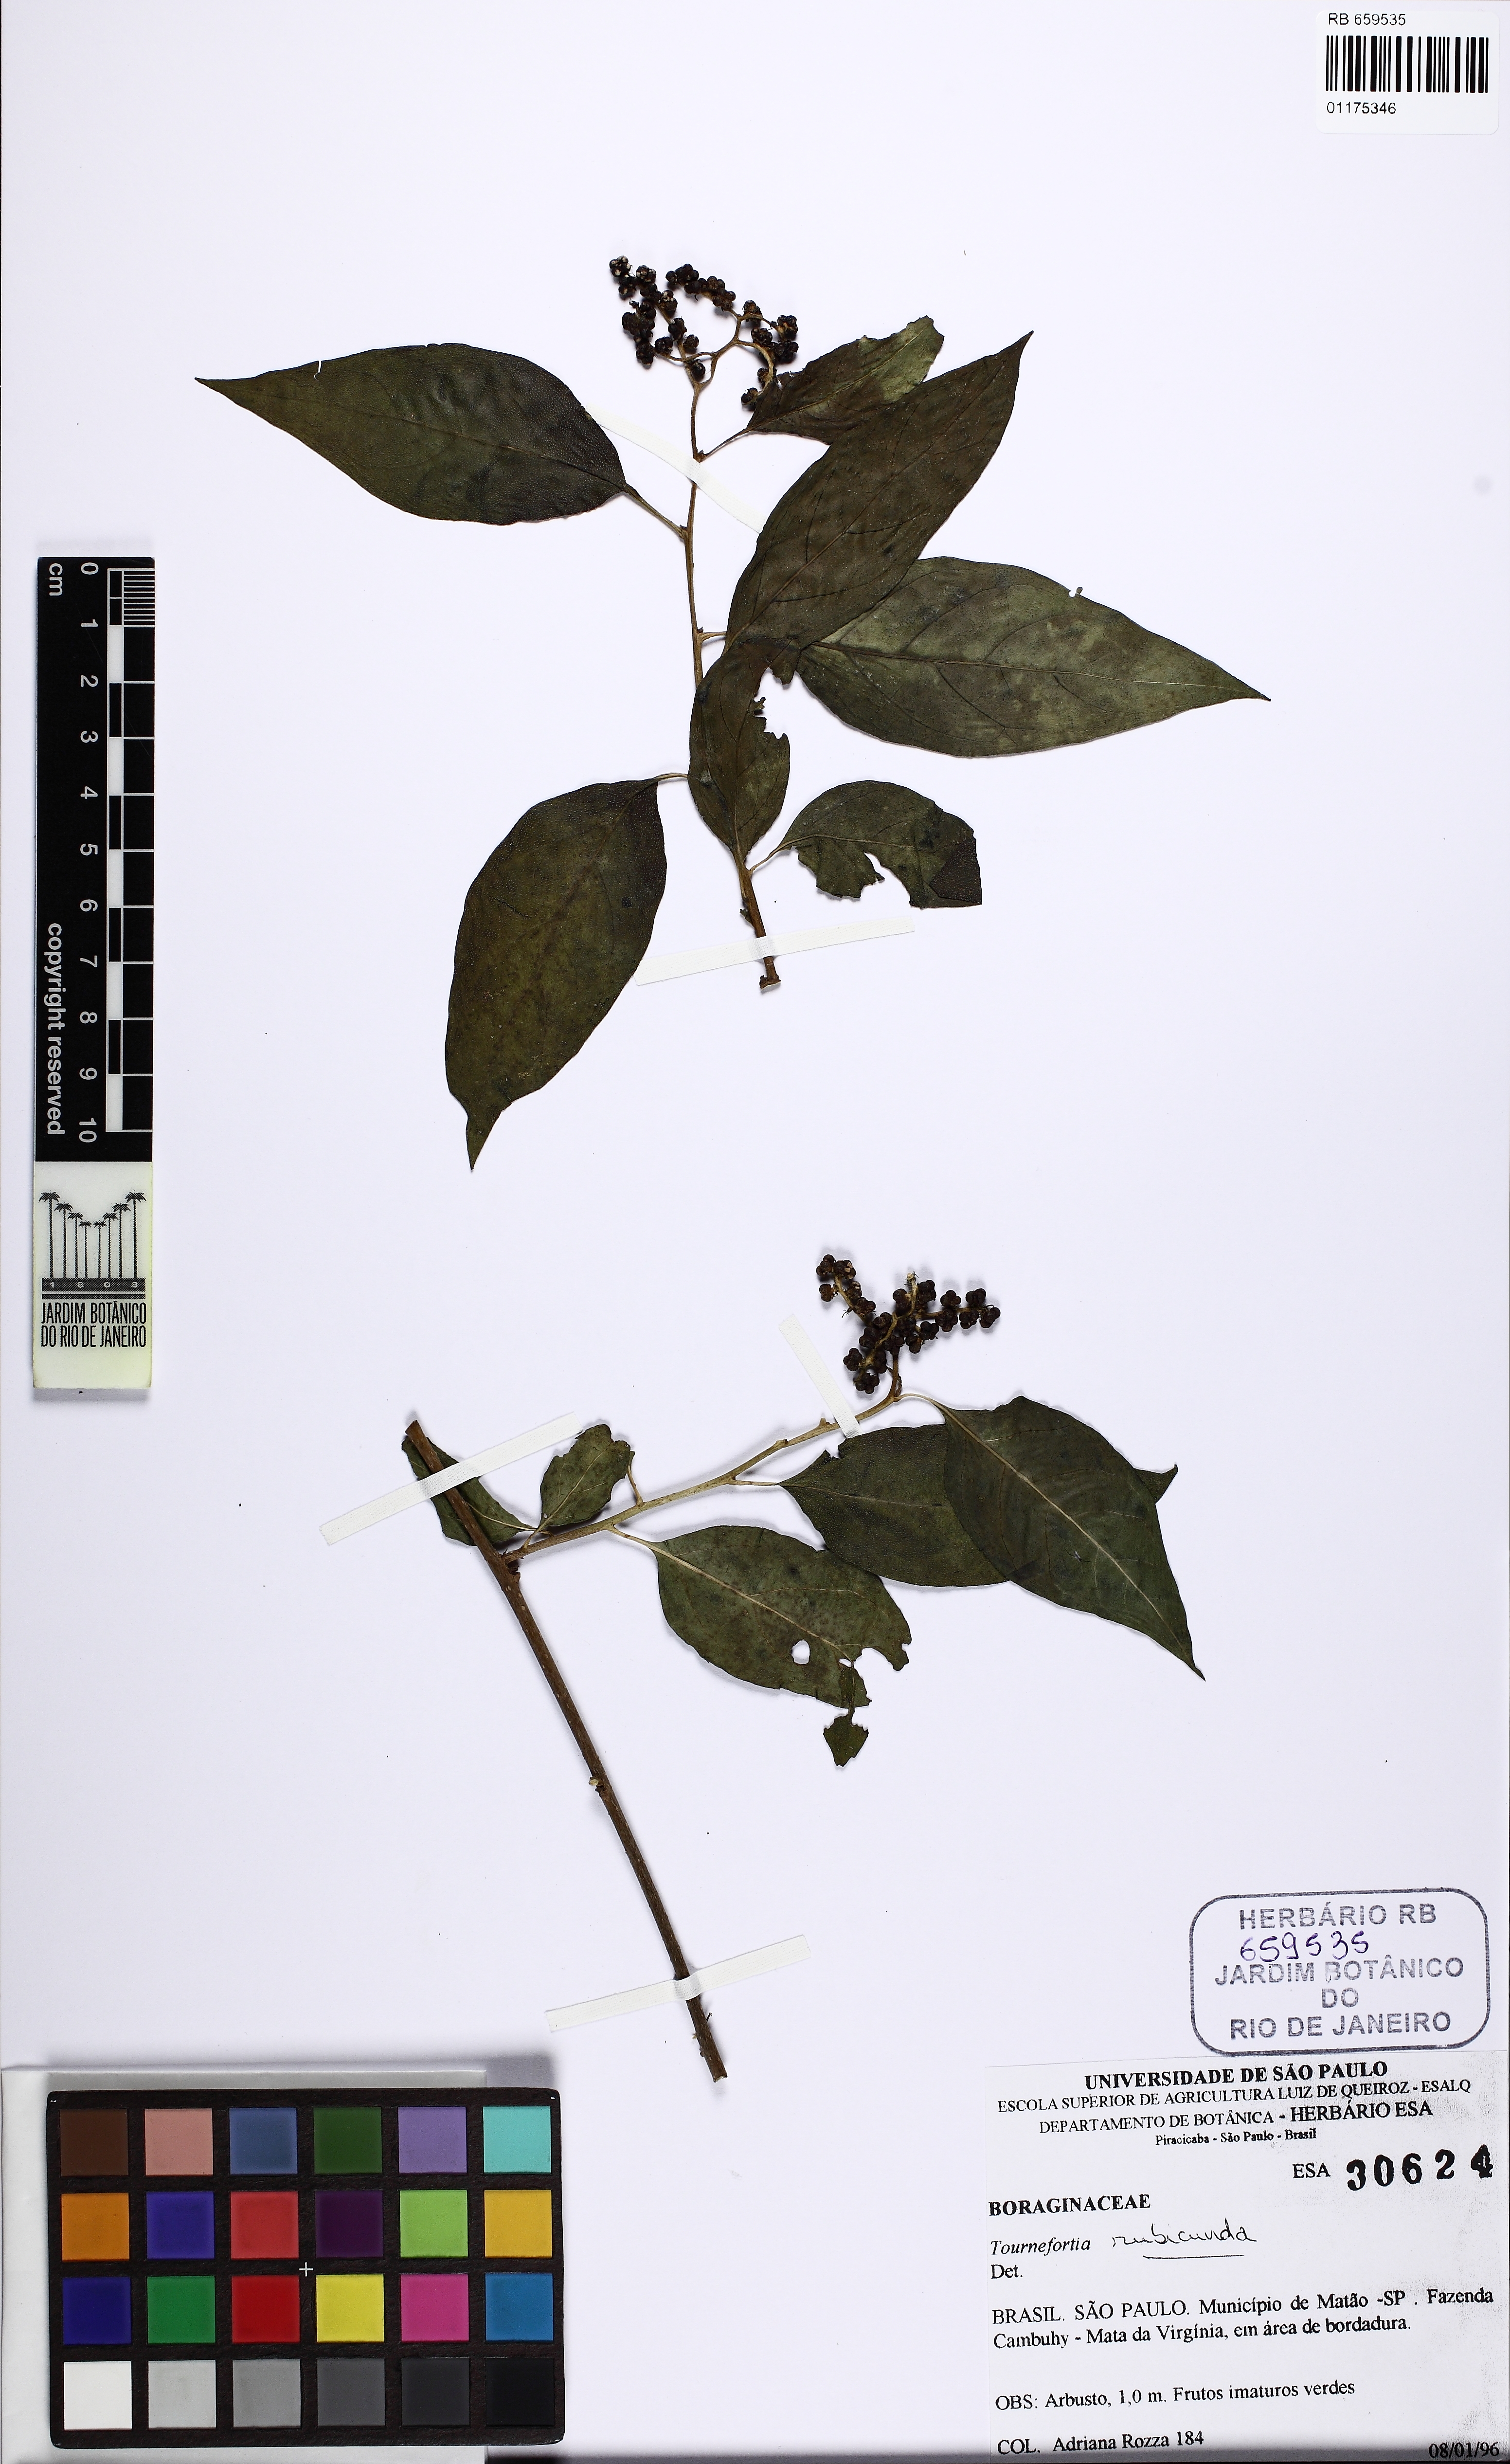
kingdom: Plantae
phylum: Tracheophyta
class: Magnoliopsida
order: Boraginales
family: Heliotropiaceae
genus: Myriopus
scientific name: Myriopus rubicundus
